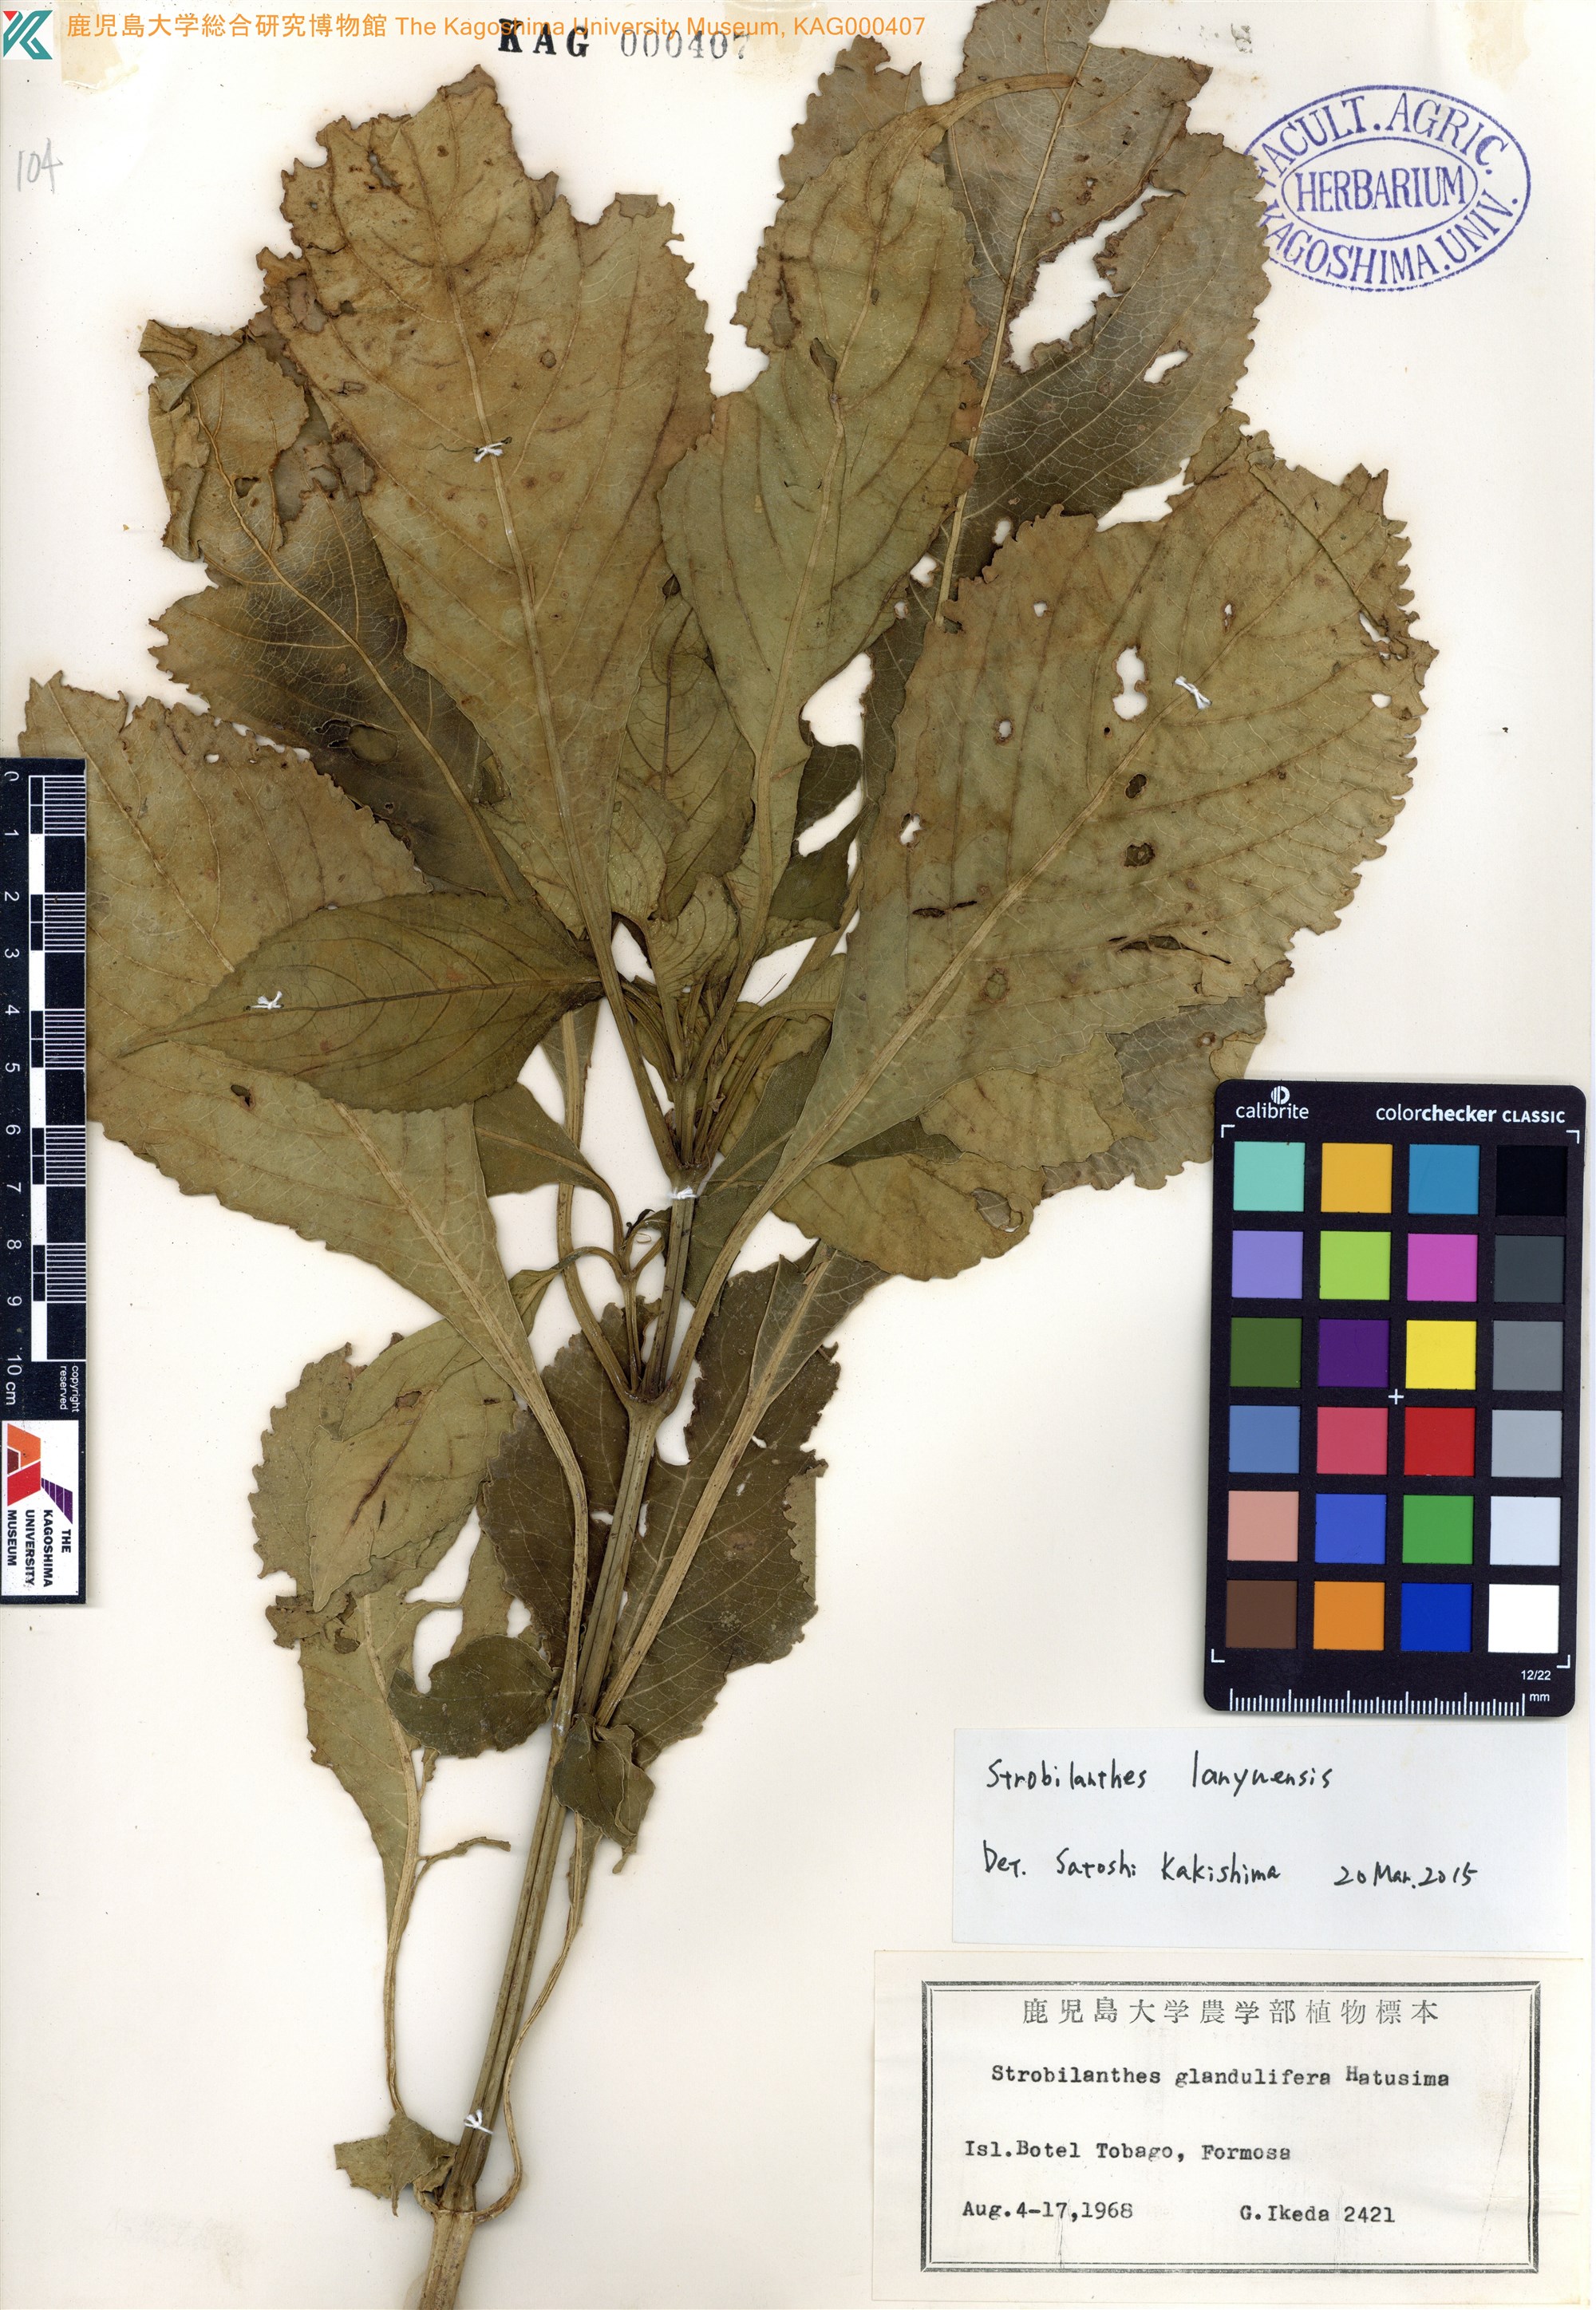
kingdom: Plantae
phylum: Tracheophyta
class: Magnoliopsida
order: Lamiales
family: Acanthaceae
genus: Strobilanthes
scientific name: Strobilanthes flexicaulis
